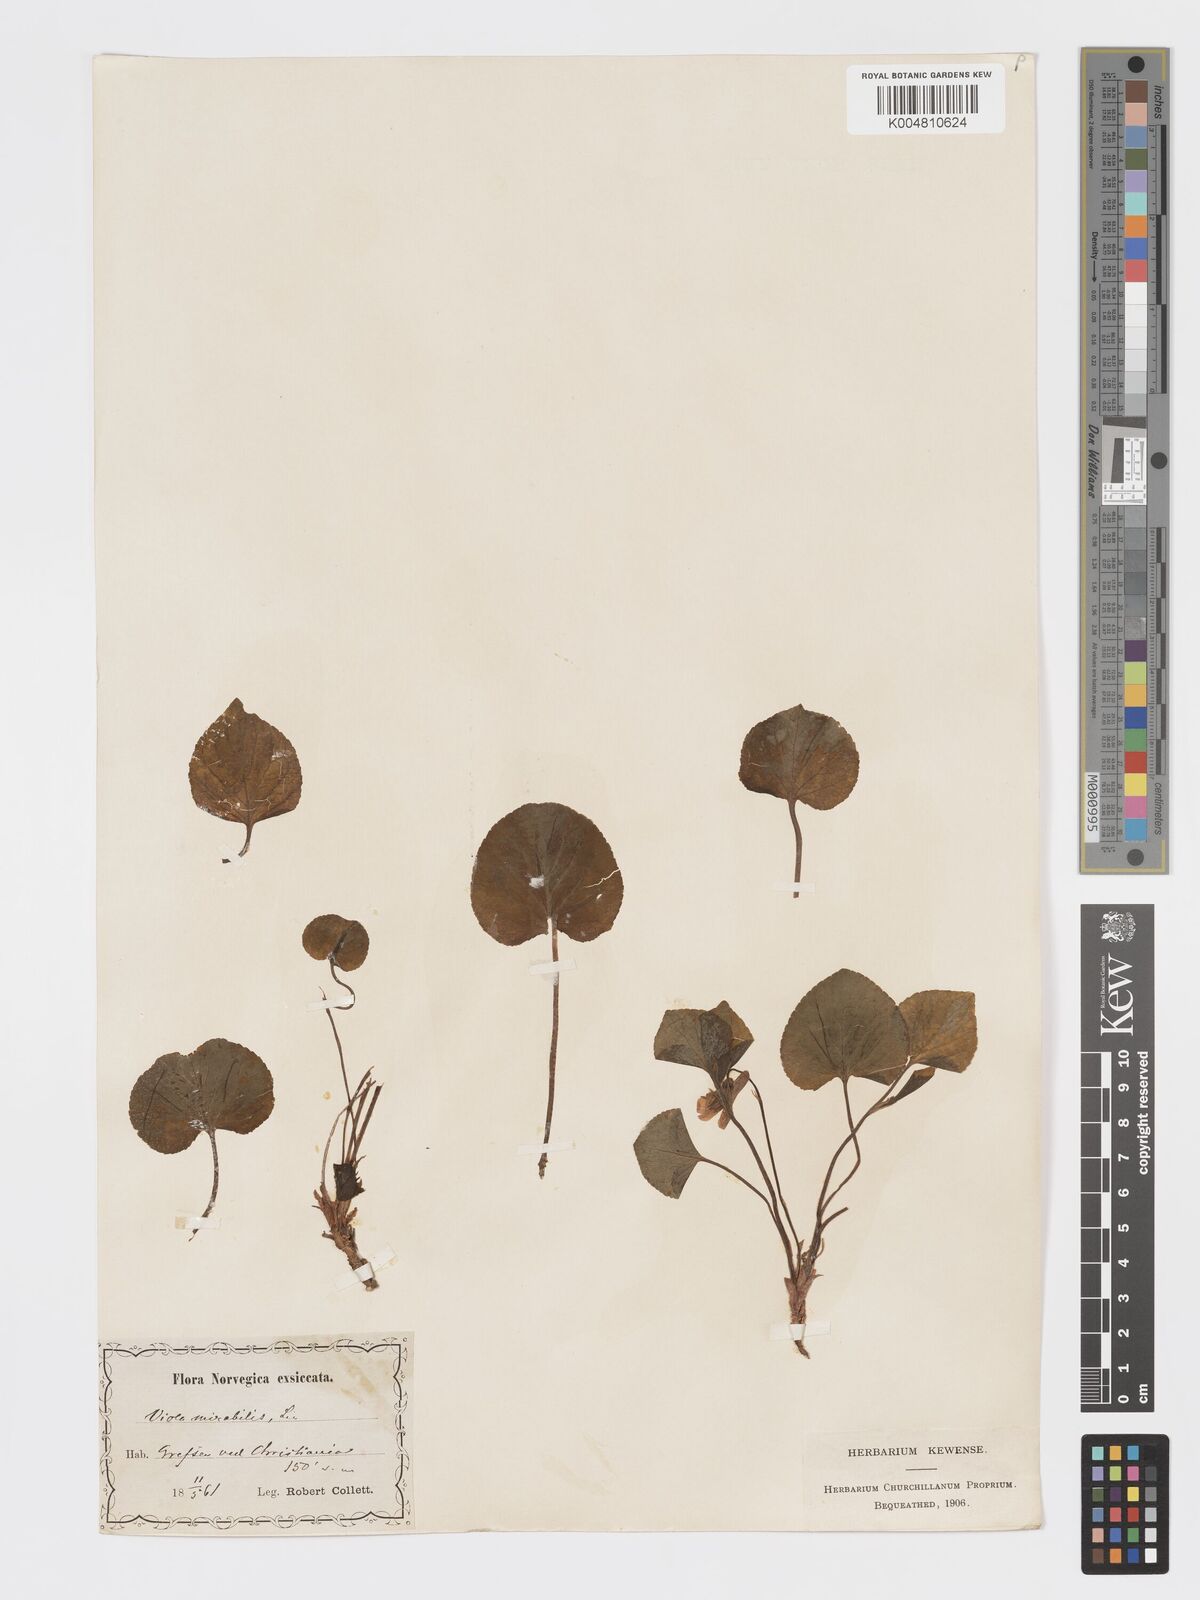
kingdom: Plantae
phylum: Tracheophyta
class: Magnoliopsida
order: Malpighiales
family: Violaceae
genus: Viola
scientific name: Viola mirabilis
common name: Wonder violet
